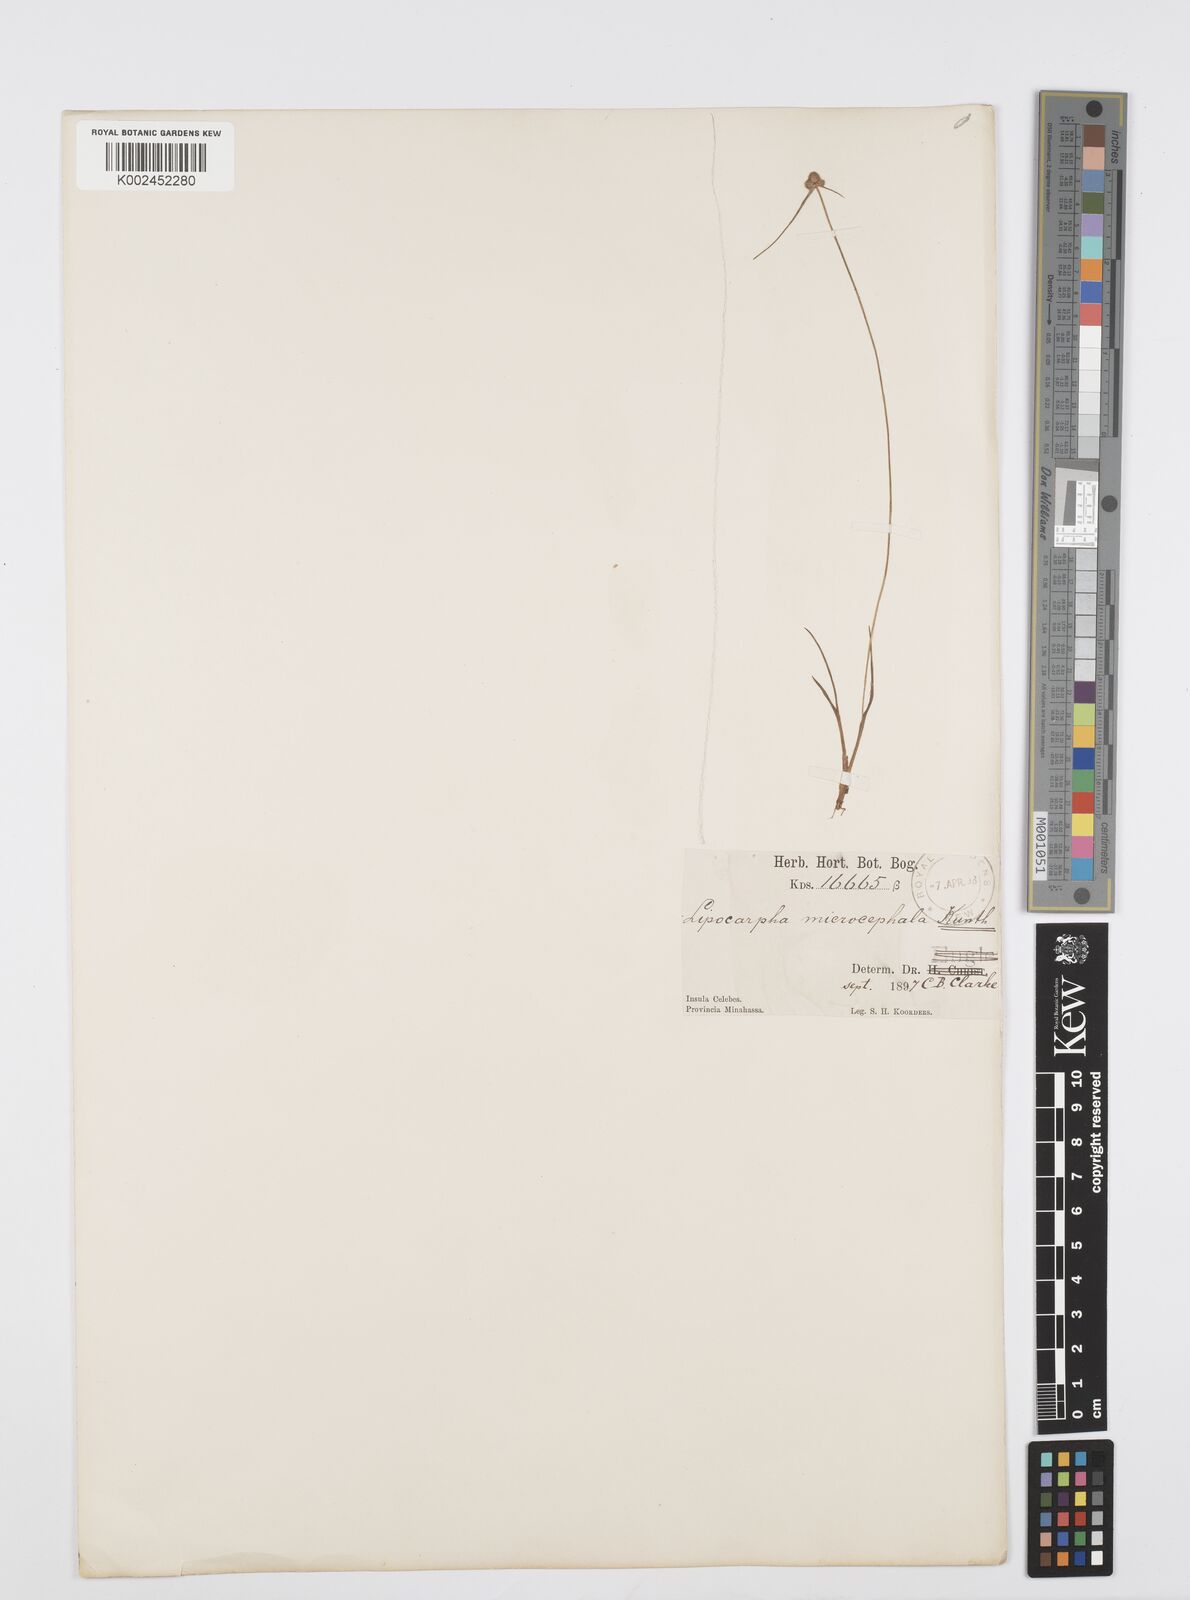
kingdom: Plantae
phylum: Tracheophyta
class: Liliopsida
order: Poales
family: Cyperaceae
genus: Cyperus
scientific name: Cyperus microcephalus
